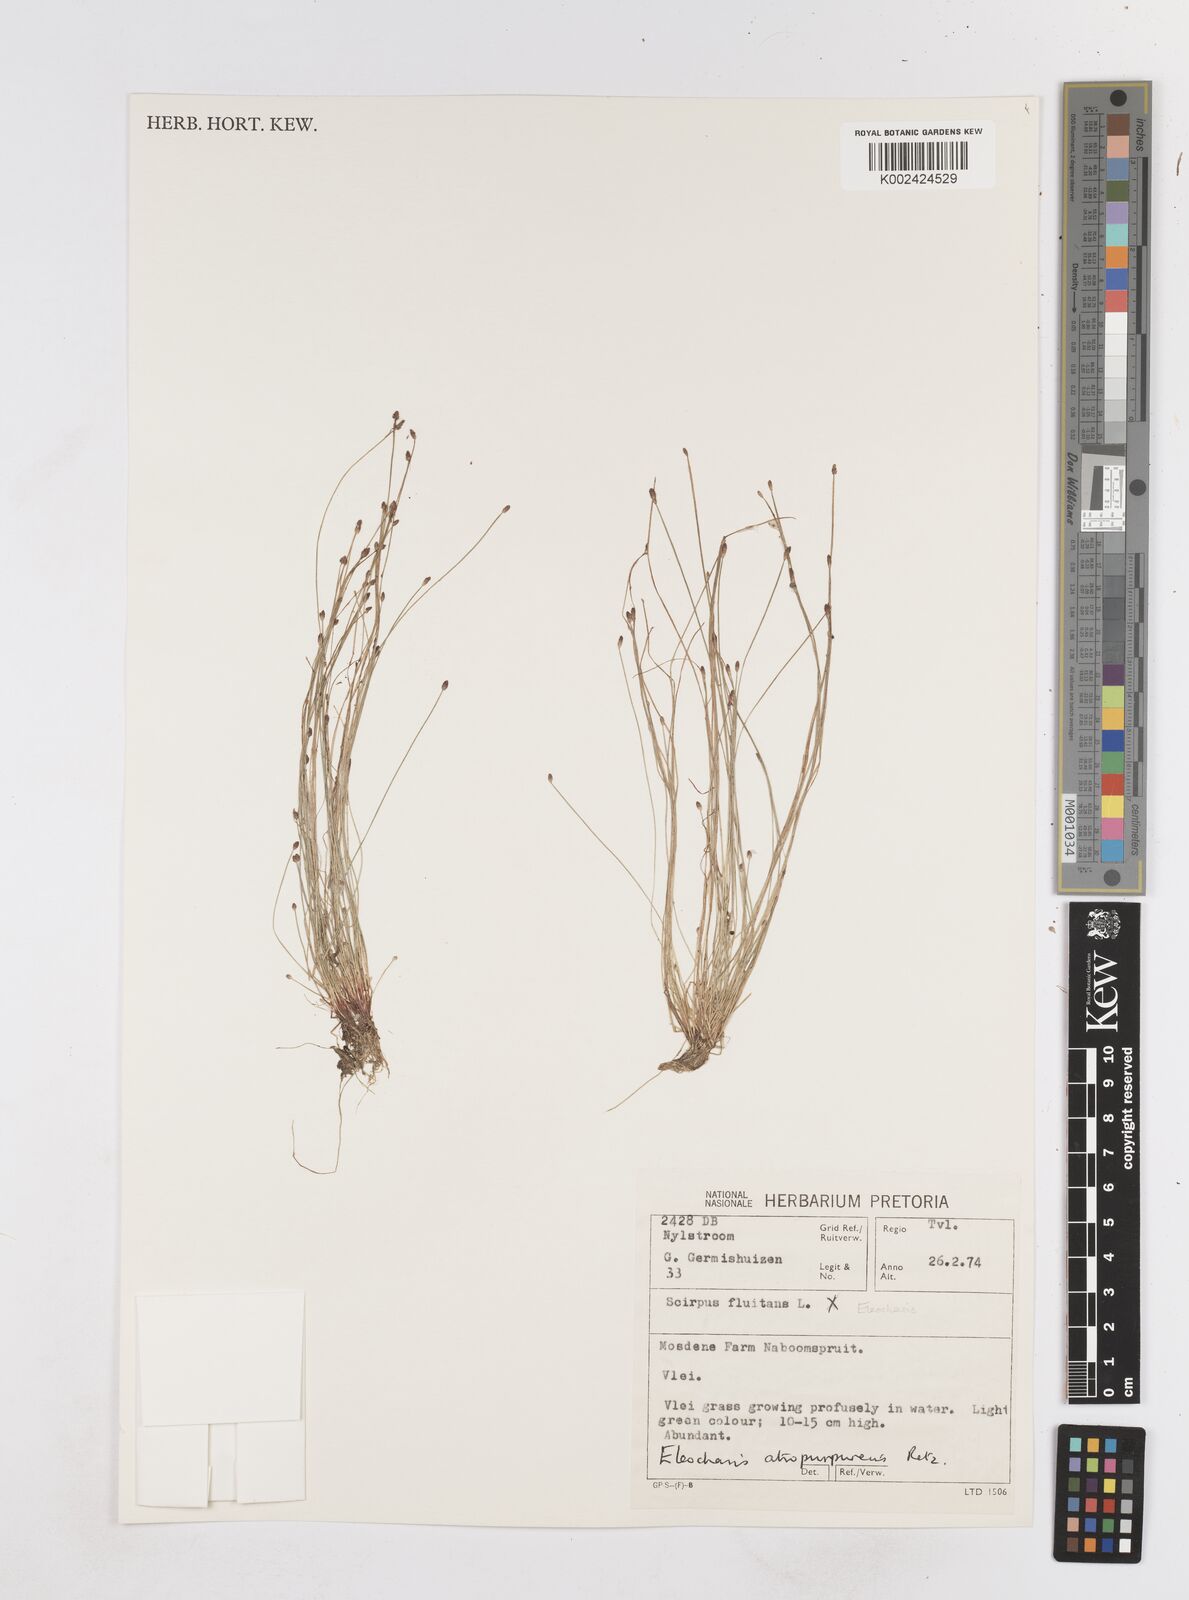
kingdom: Plantae
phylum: Tracheophyta
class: Liliopsida
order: Poales
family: Cyperaceae
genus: Eleocharis
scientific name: Eleocharis atropurpurea
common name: Purple spikerush
